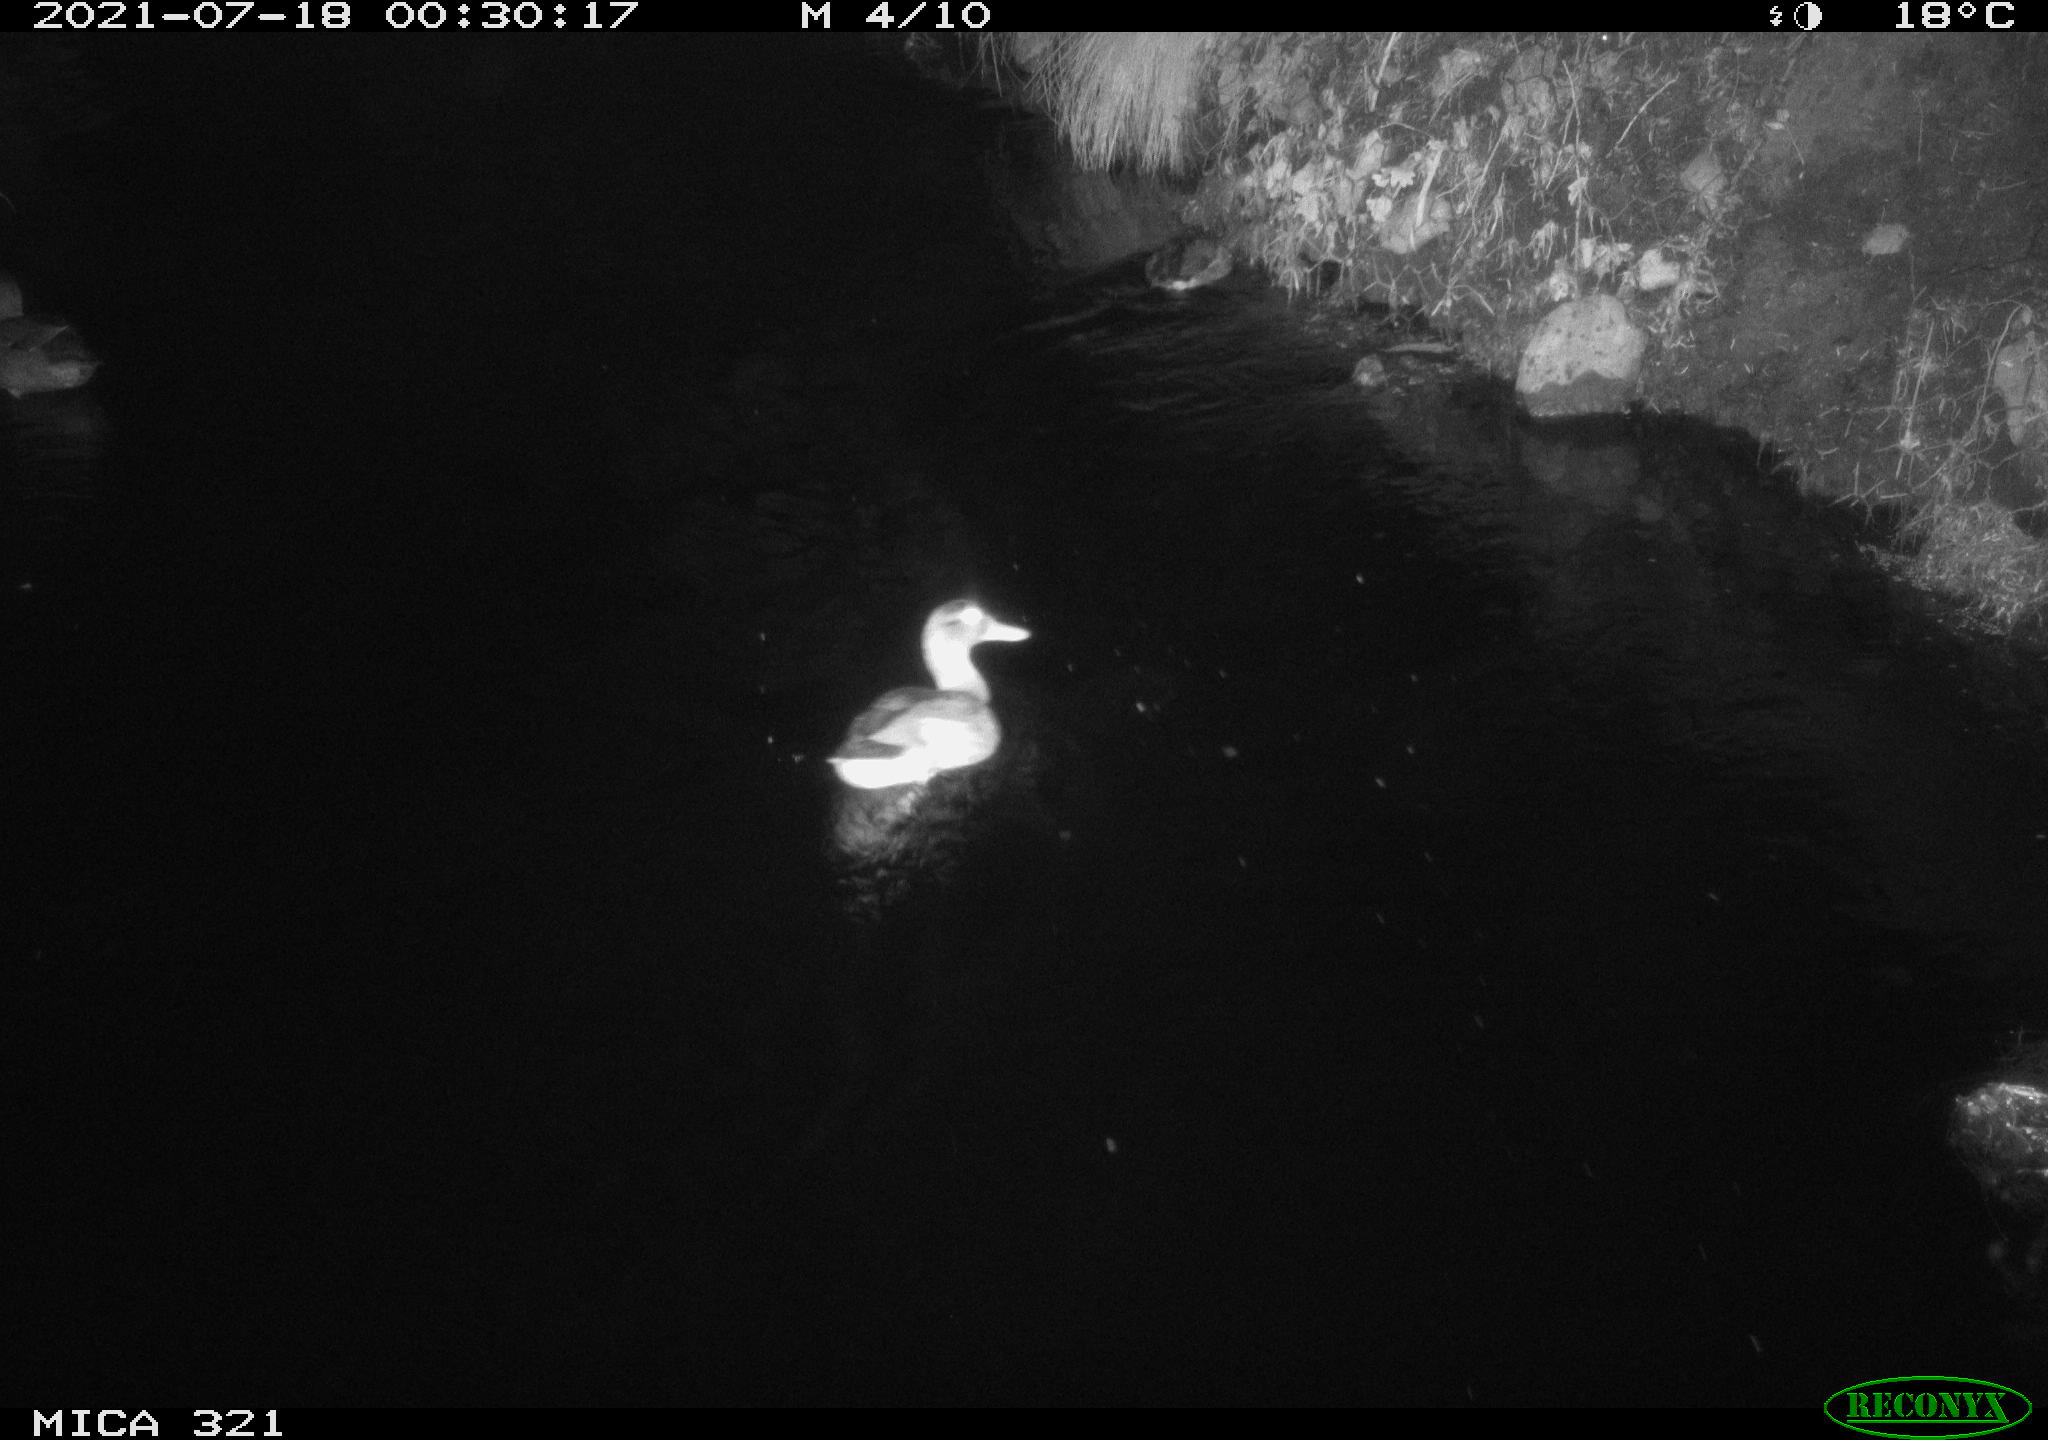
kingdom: Animalia
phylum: Chordata
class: Aves
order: Anseriformes
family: Anatidae
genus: Anas
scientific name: Anas platyrhynchos
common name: Mallard
